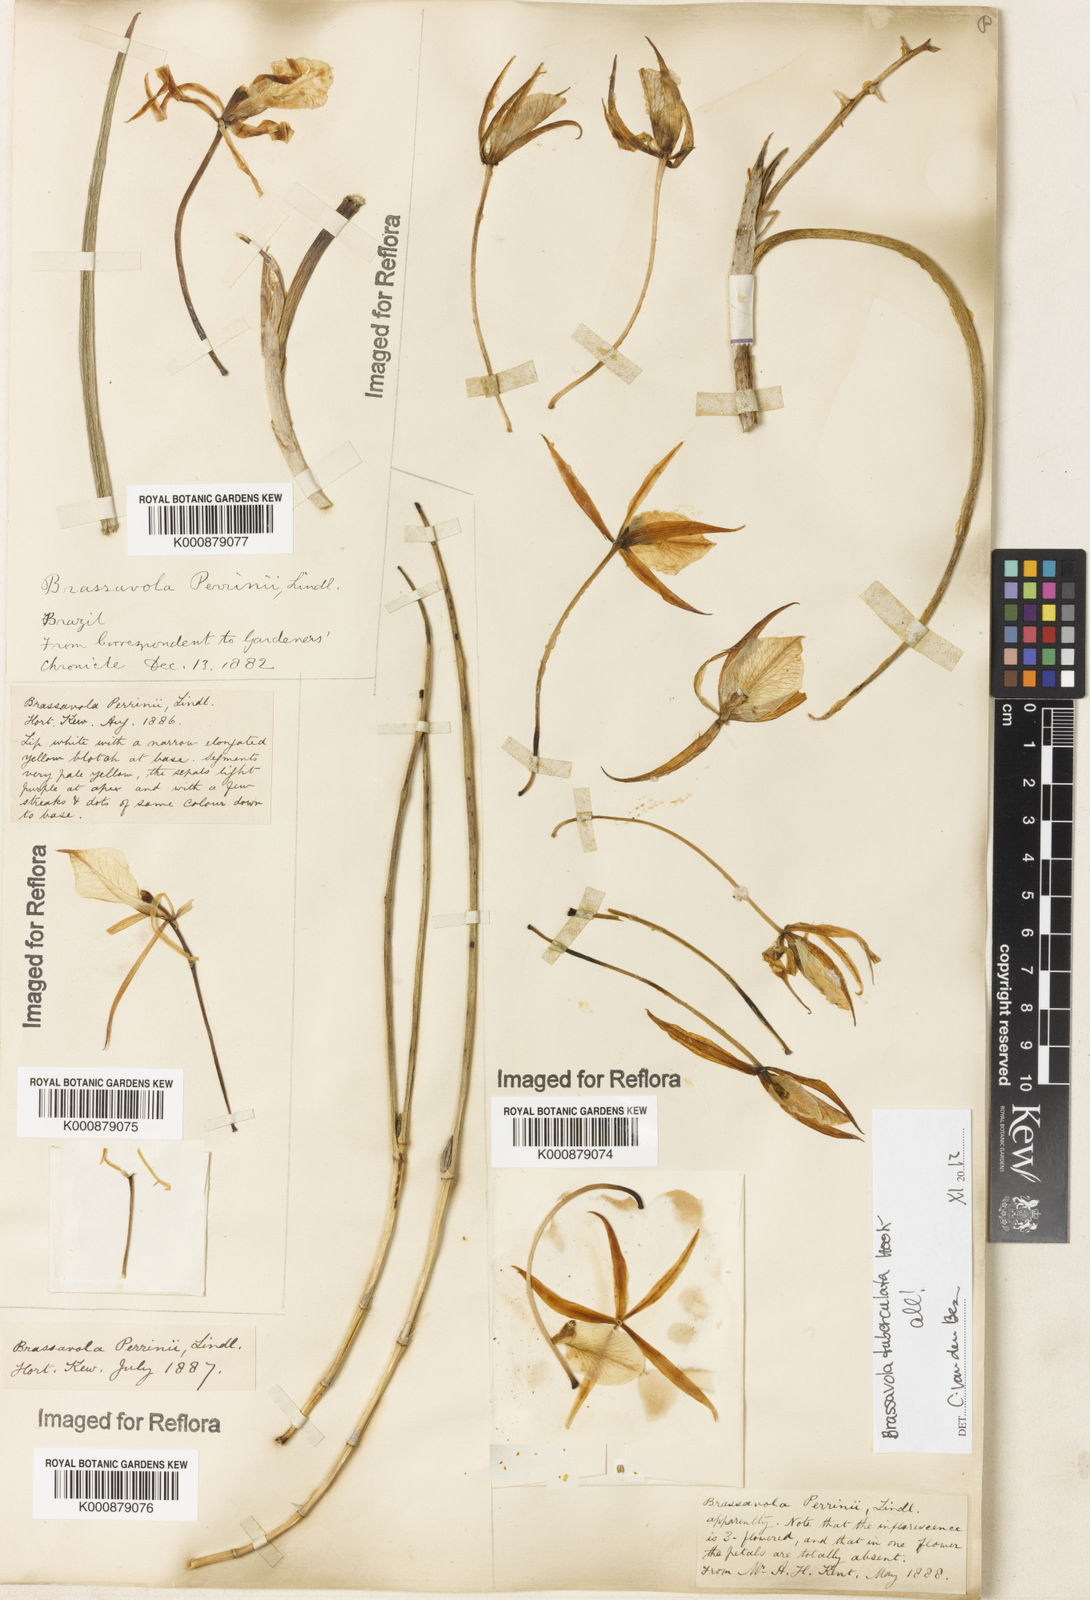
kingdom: Plantae
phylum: Tracheophyta
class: Liliopsida
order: Asparagales
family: Orchidaceae
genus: Brassavola
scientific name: Brassavola tuberculata
